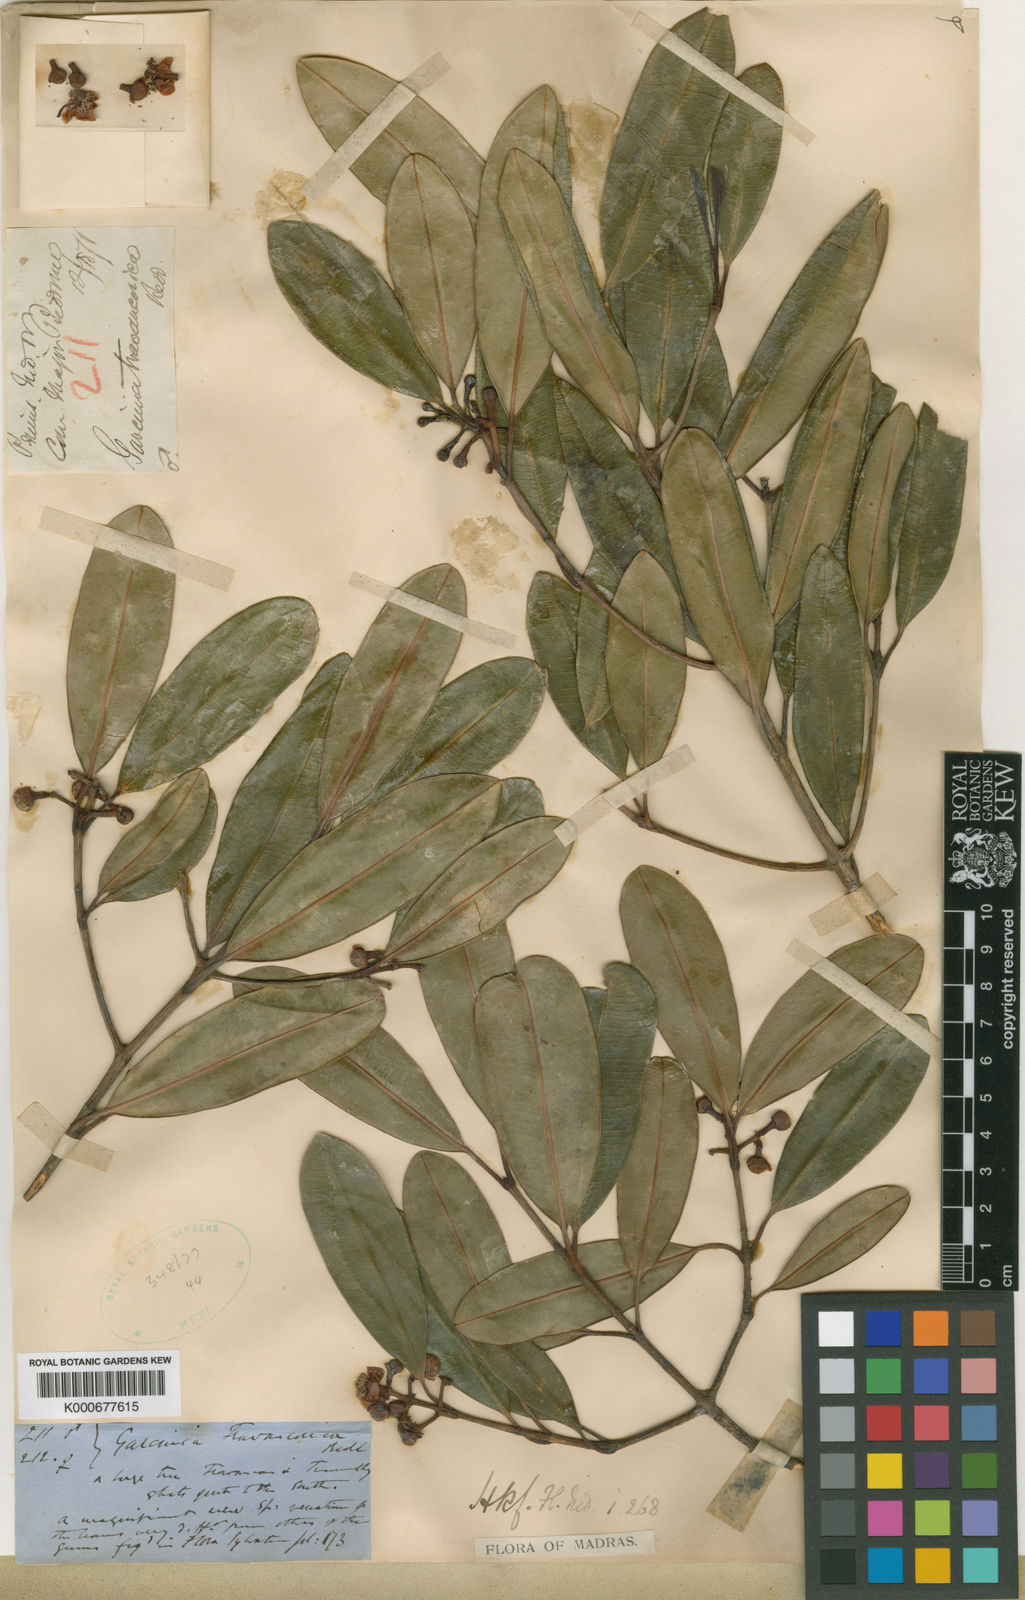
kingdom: Plantae
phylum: Tracheophyta
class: Magnoliopsida
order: Malpighiales
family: Clusiaceae
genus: Garcinia
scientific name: Garcinia travancorica
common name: Travancore gamboge
